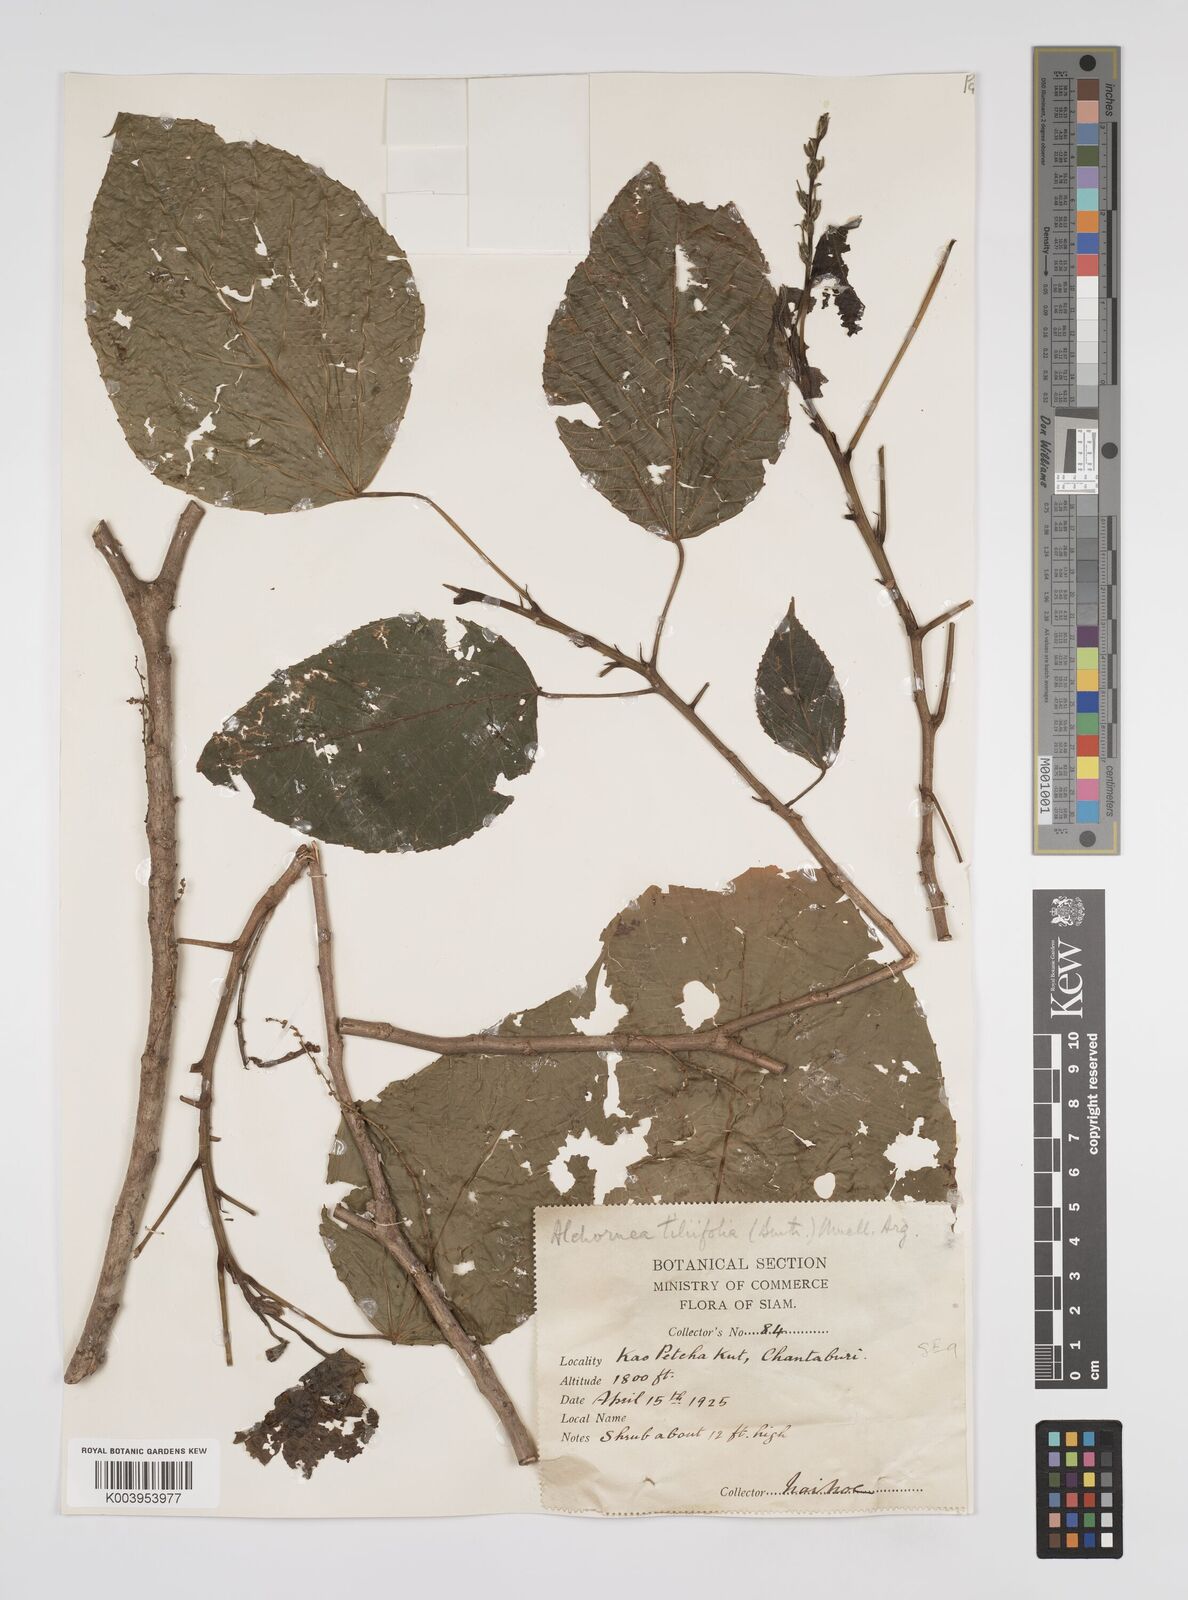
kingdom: Plantae
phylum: Tracheophyta
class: Magnoliopsida
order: Malpighiales
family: Euphorbiaceae
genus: Alchornea
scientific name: Alchornea tiliifolia
